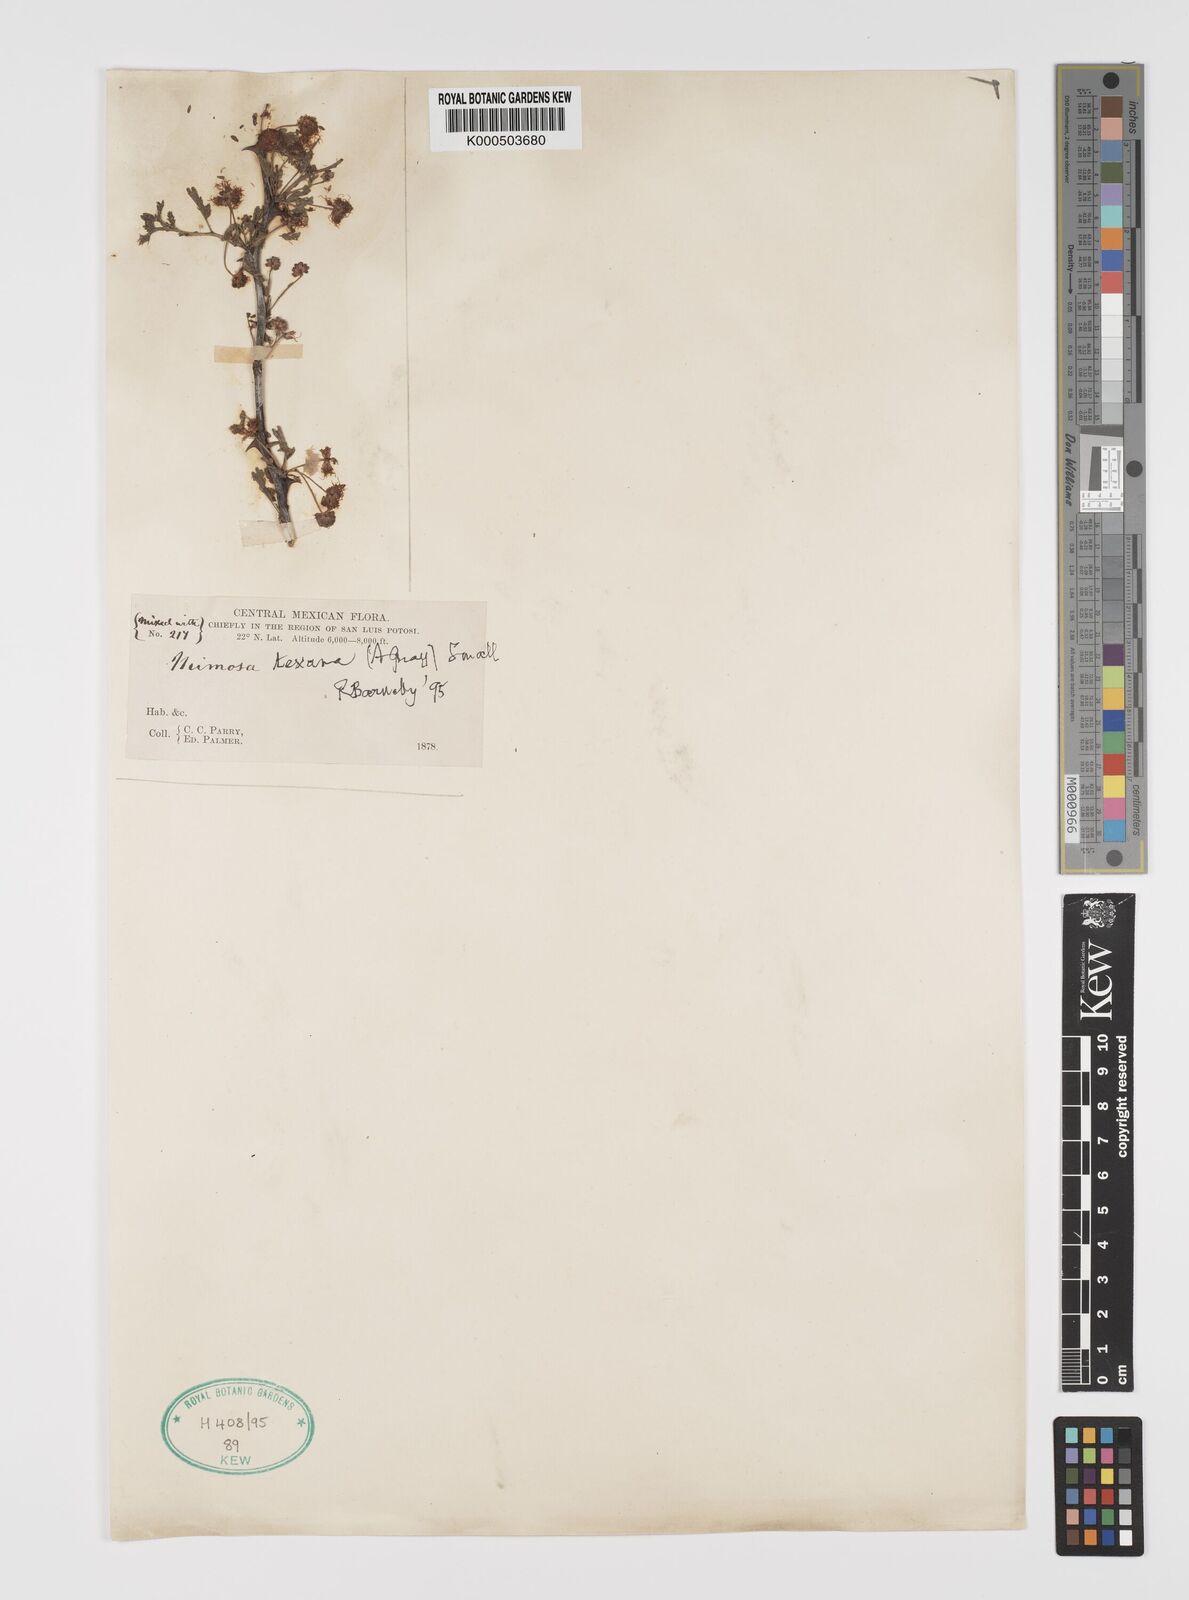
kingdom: Plantae
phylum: Tracheophyta
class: Magnoliopsida
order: Fabales
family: Fabaceae
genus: Mimosa
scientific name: Mimosa texana
